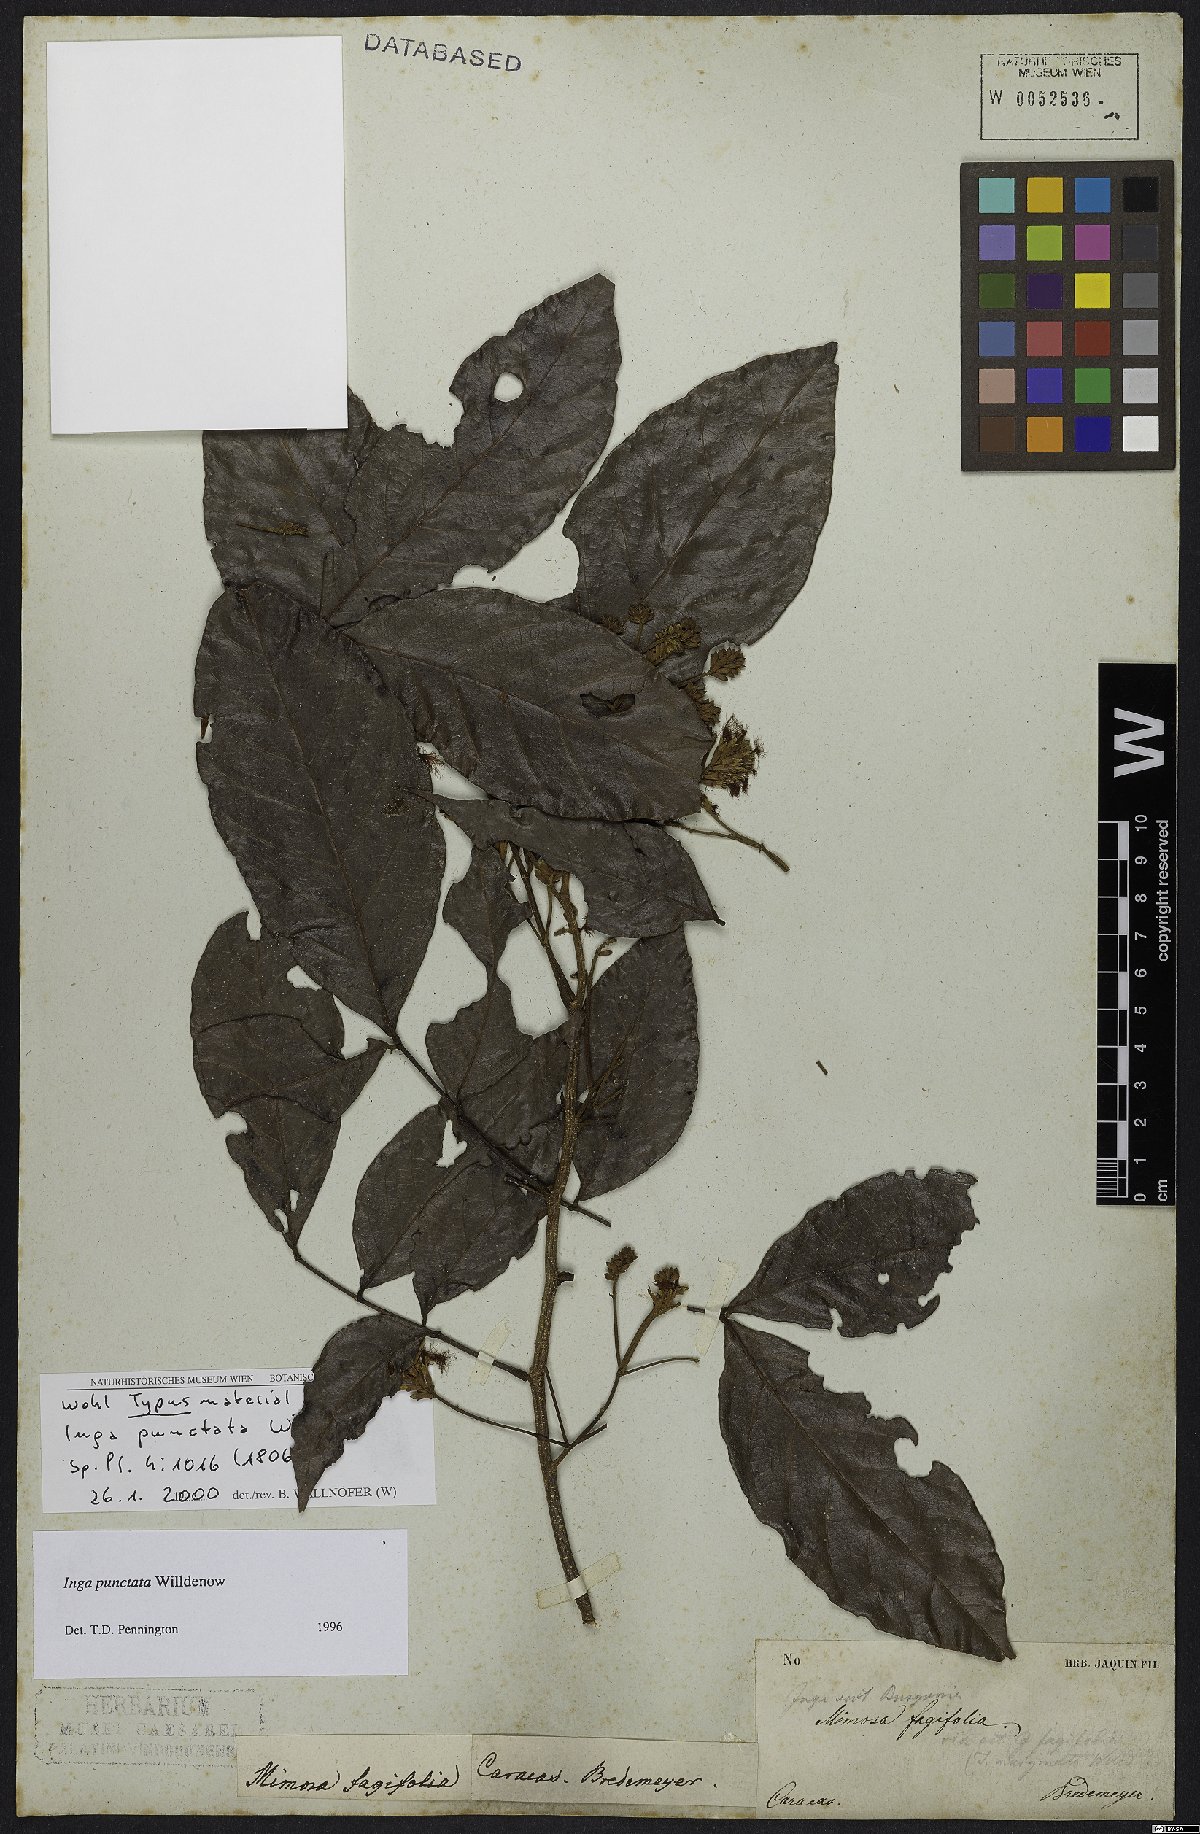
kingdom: Plantae
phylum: Tracheophyta
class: Magnoliopsida
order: Fabales
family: Fabaceae
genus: Inga
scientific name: Inga punctata
